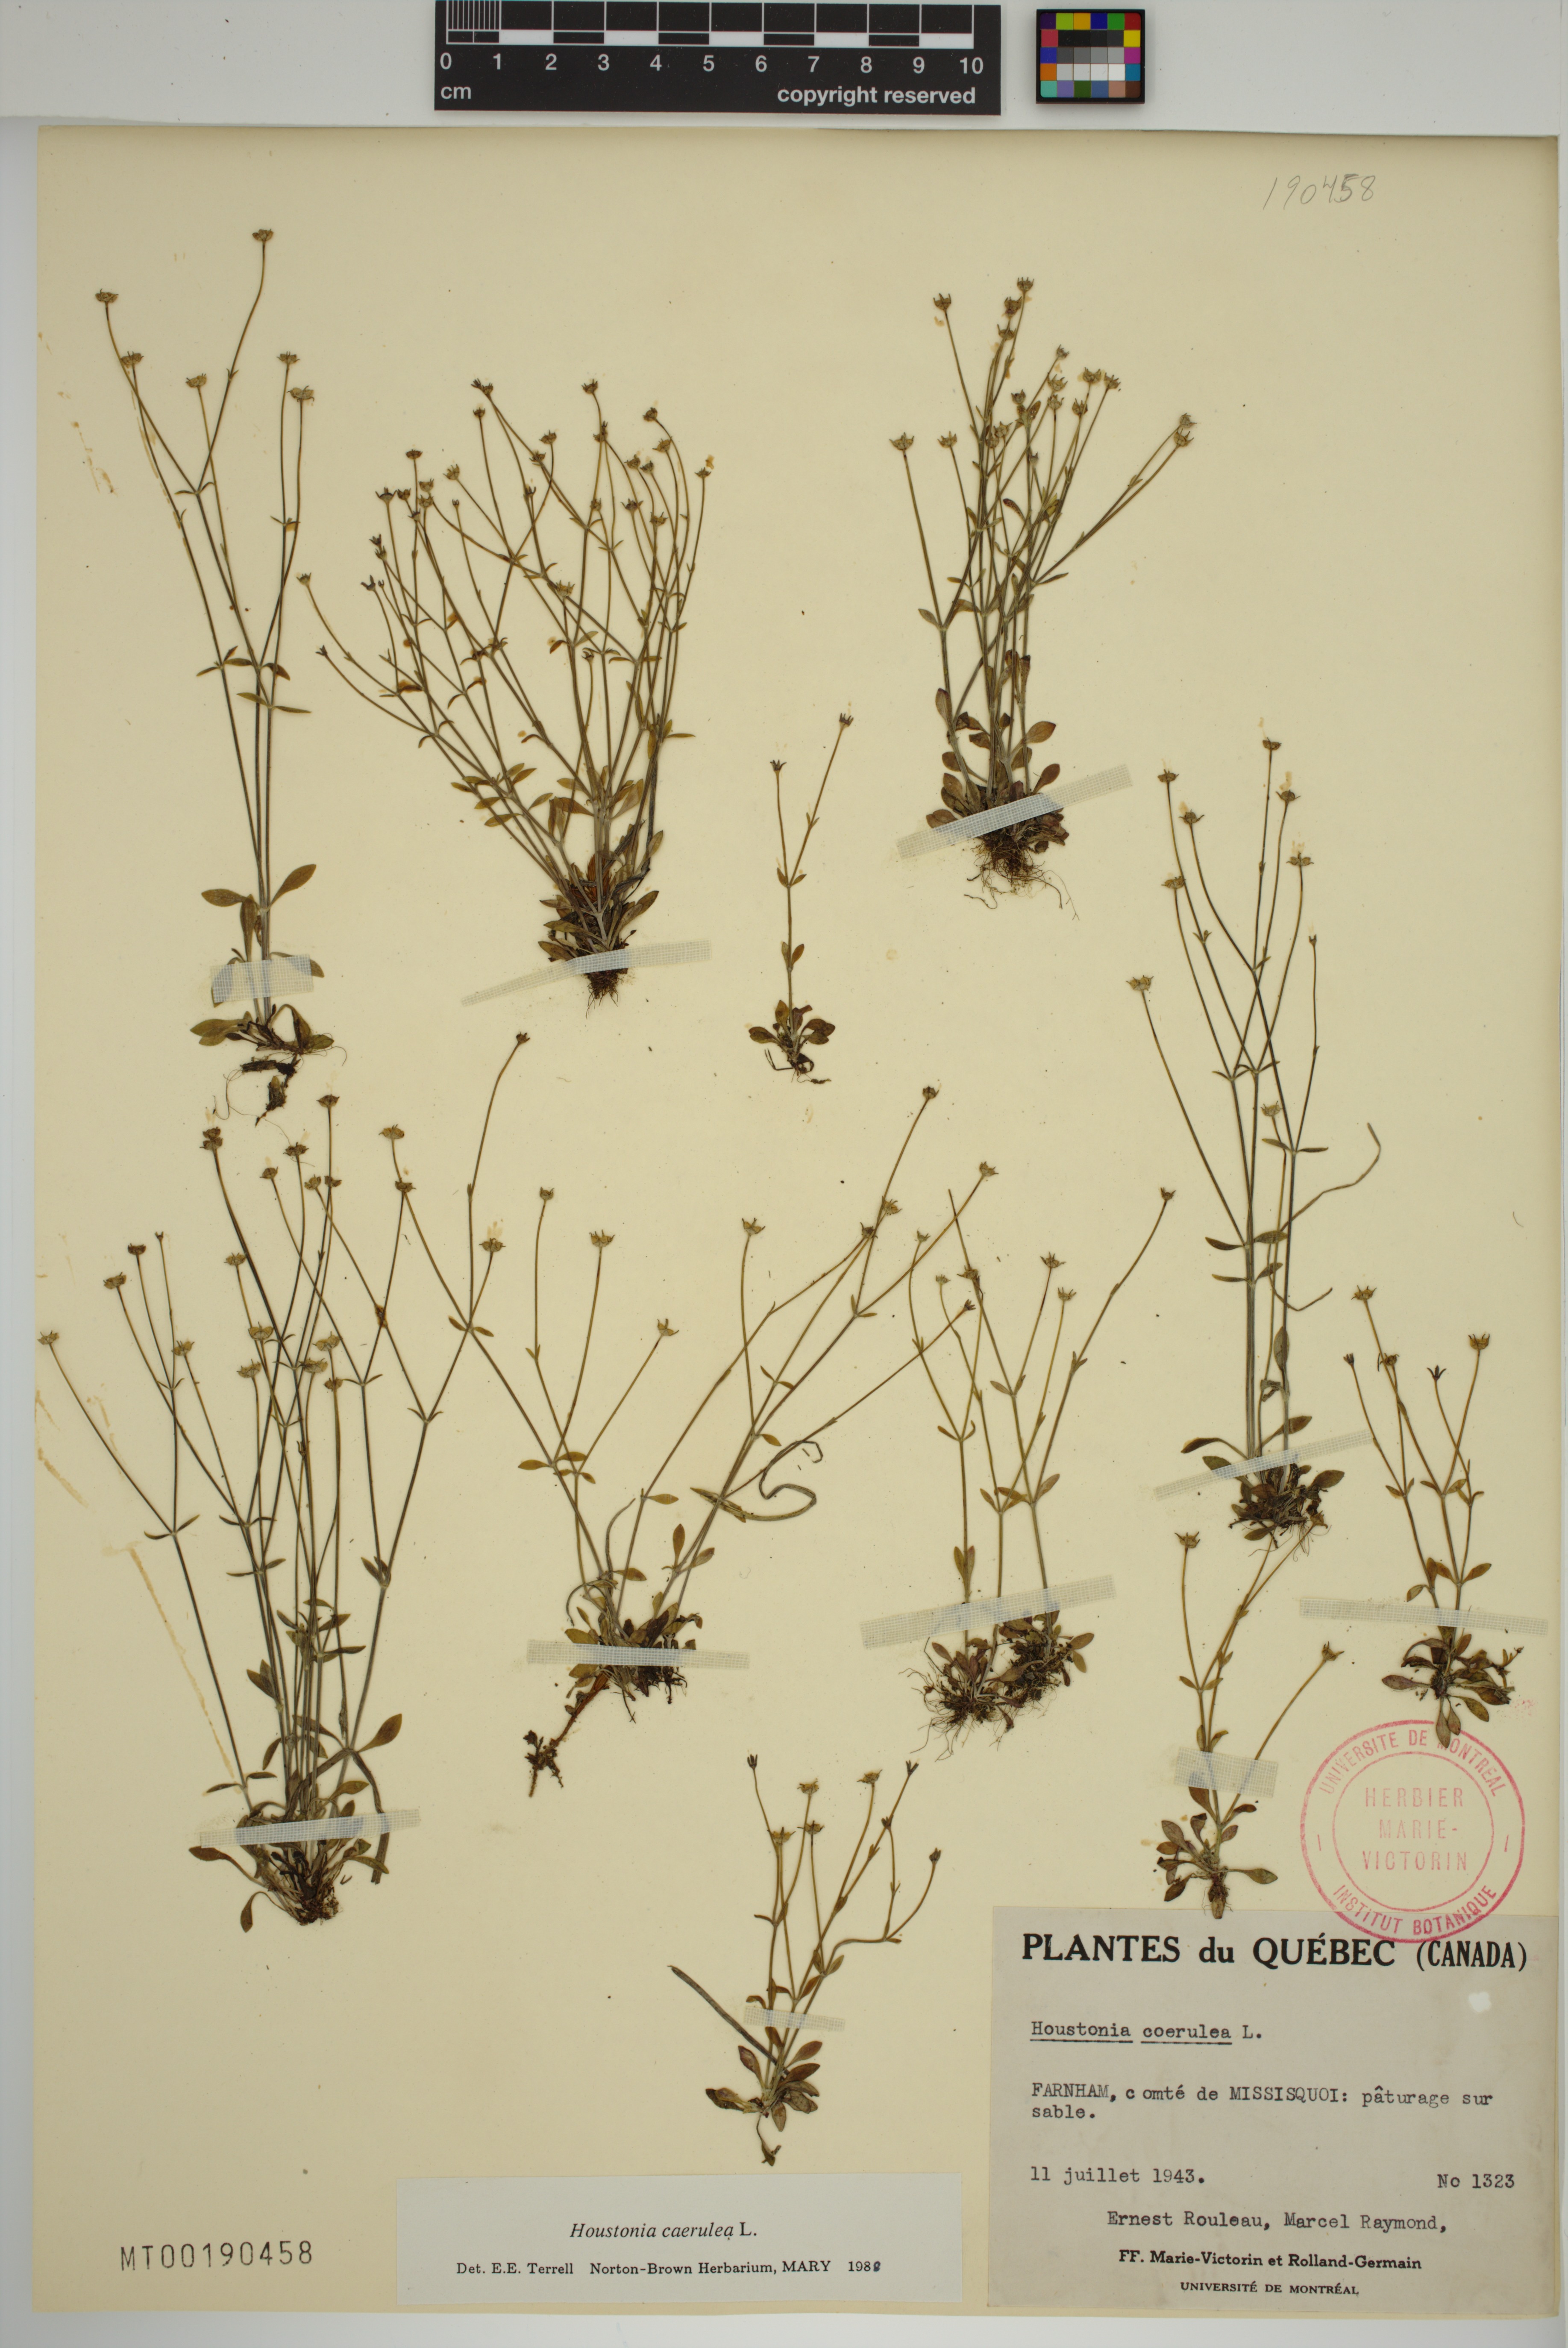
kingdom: Plantae
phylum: Tracheophyta
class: Magnoliopsida
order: Gentianales
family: Rubiaceae
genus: Houstonia
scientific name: Houstonia caerulea
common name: Bluets
